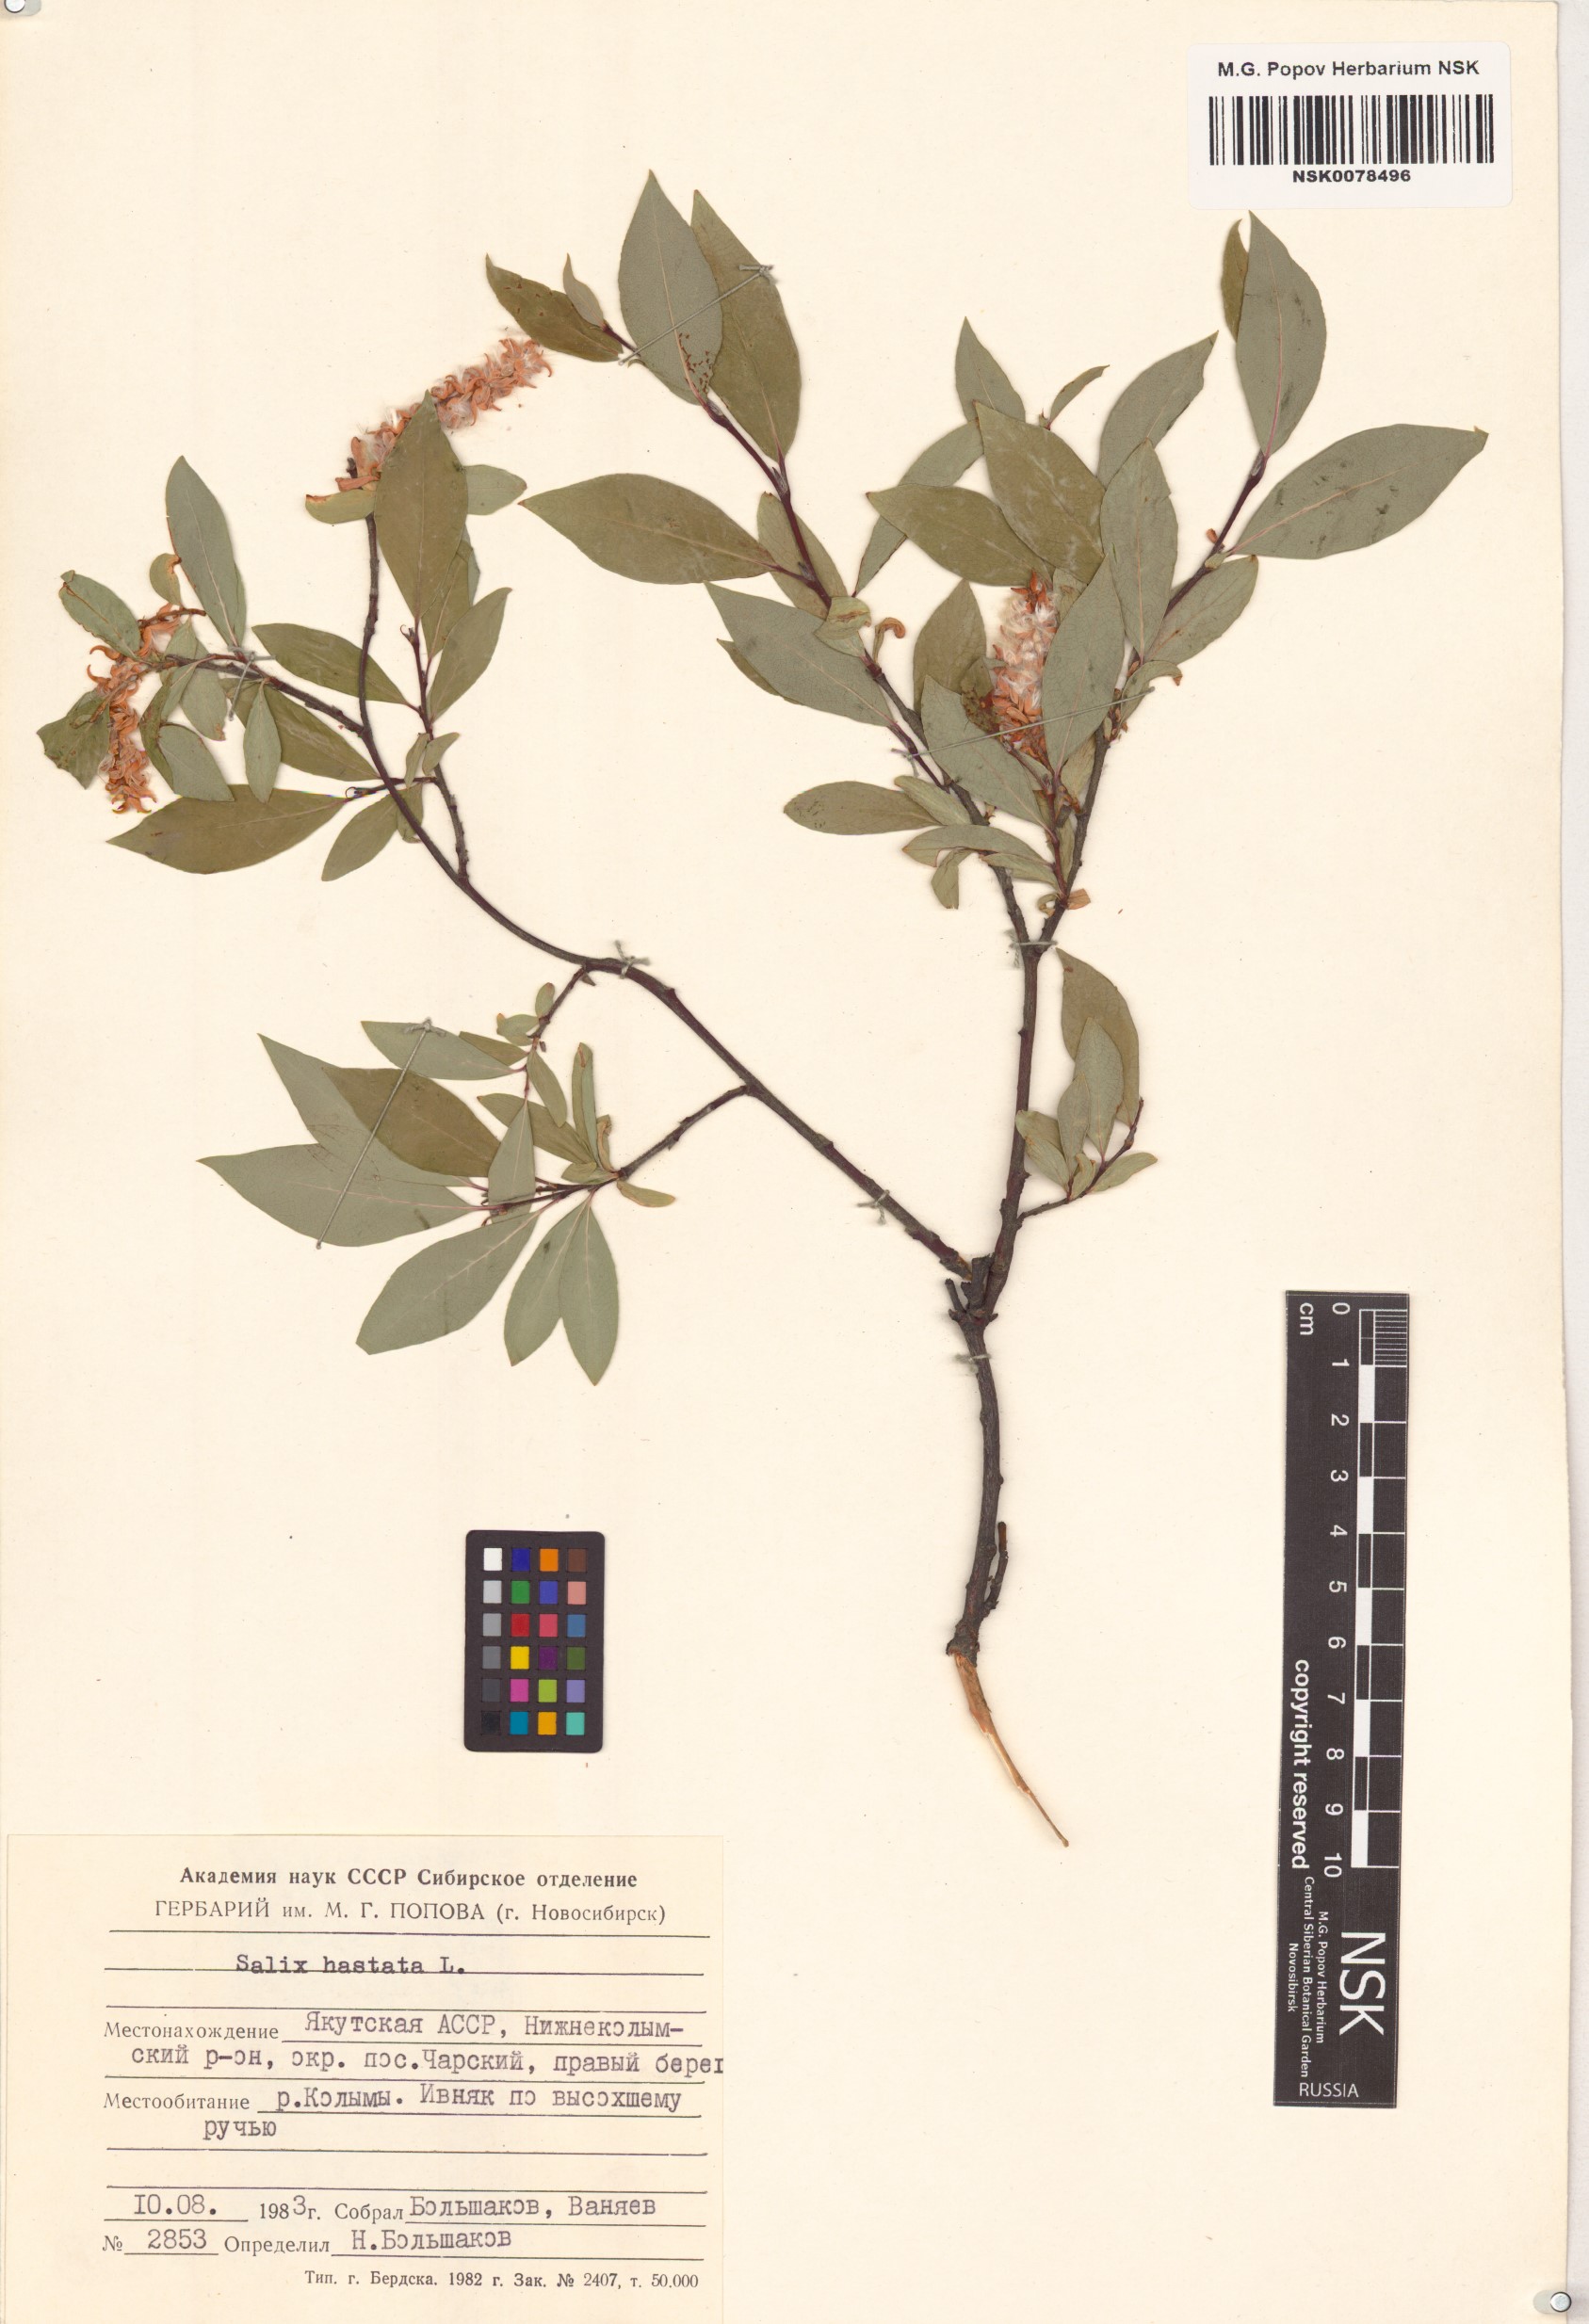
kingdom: Plantae
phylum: Tracheophyta
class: Magnoliopsida
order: Malpighiales
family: Salicaceae
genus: Salix
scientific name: Salix hastata
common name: Halberd willow
